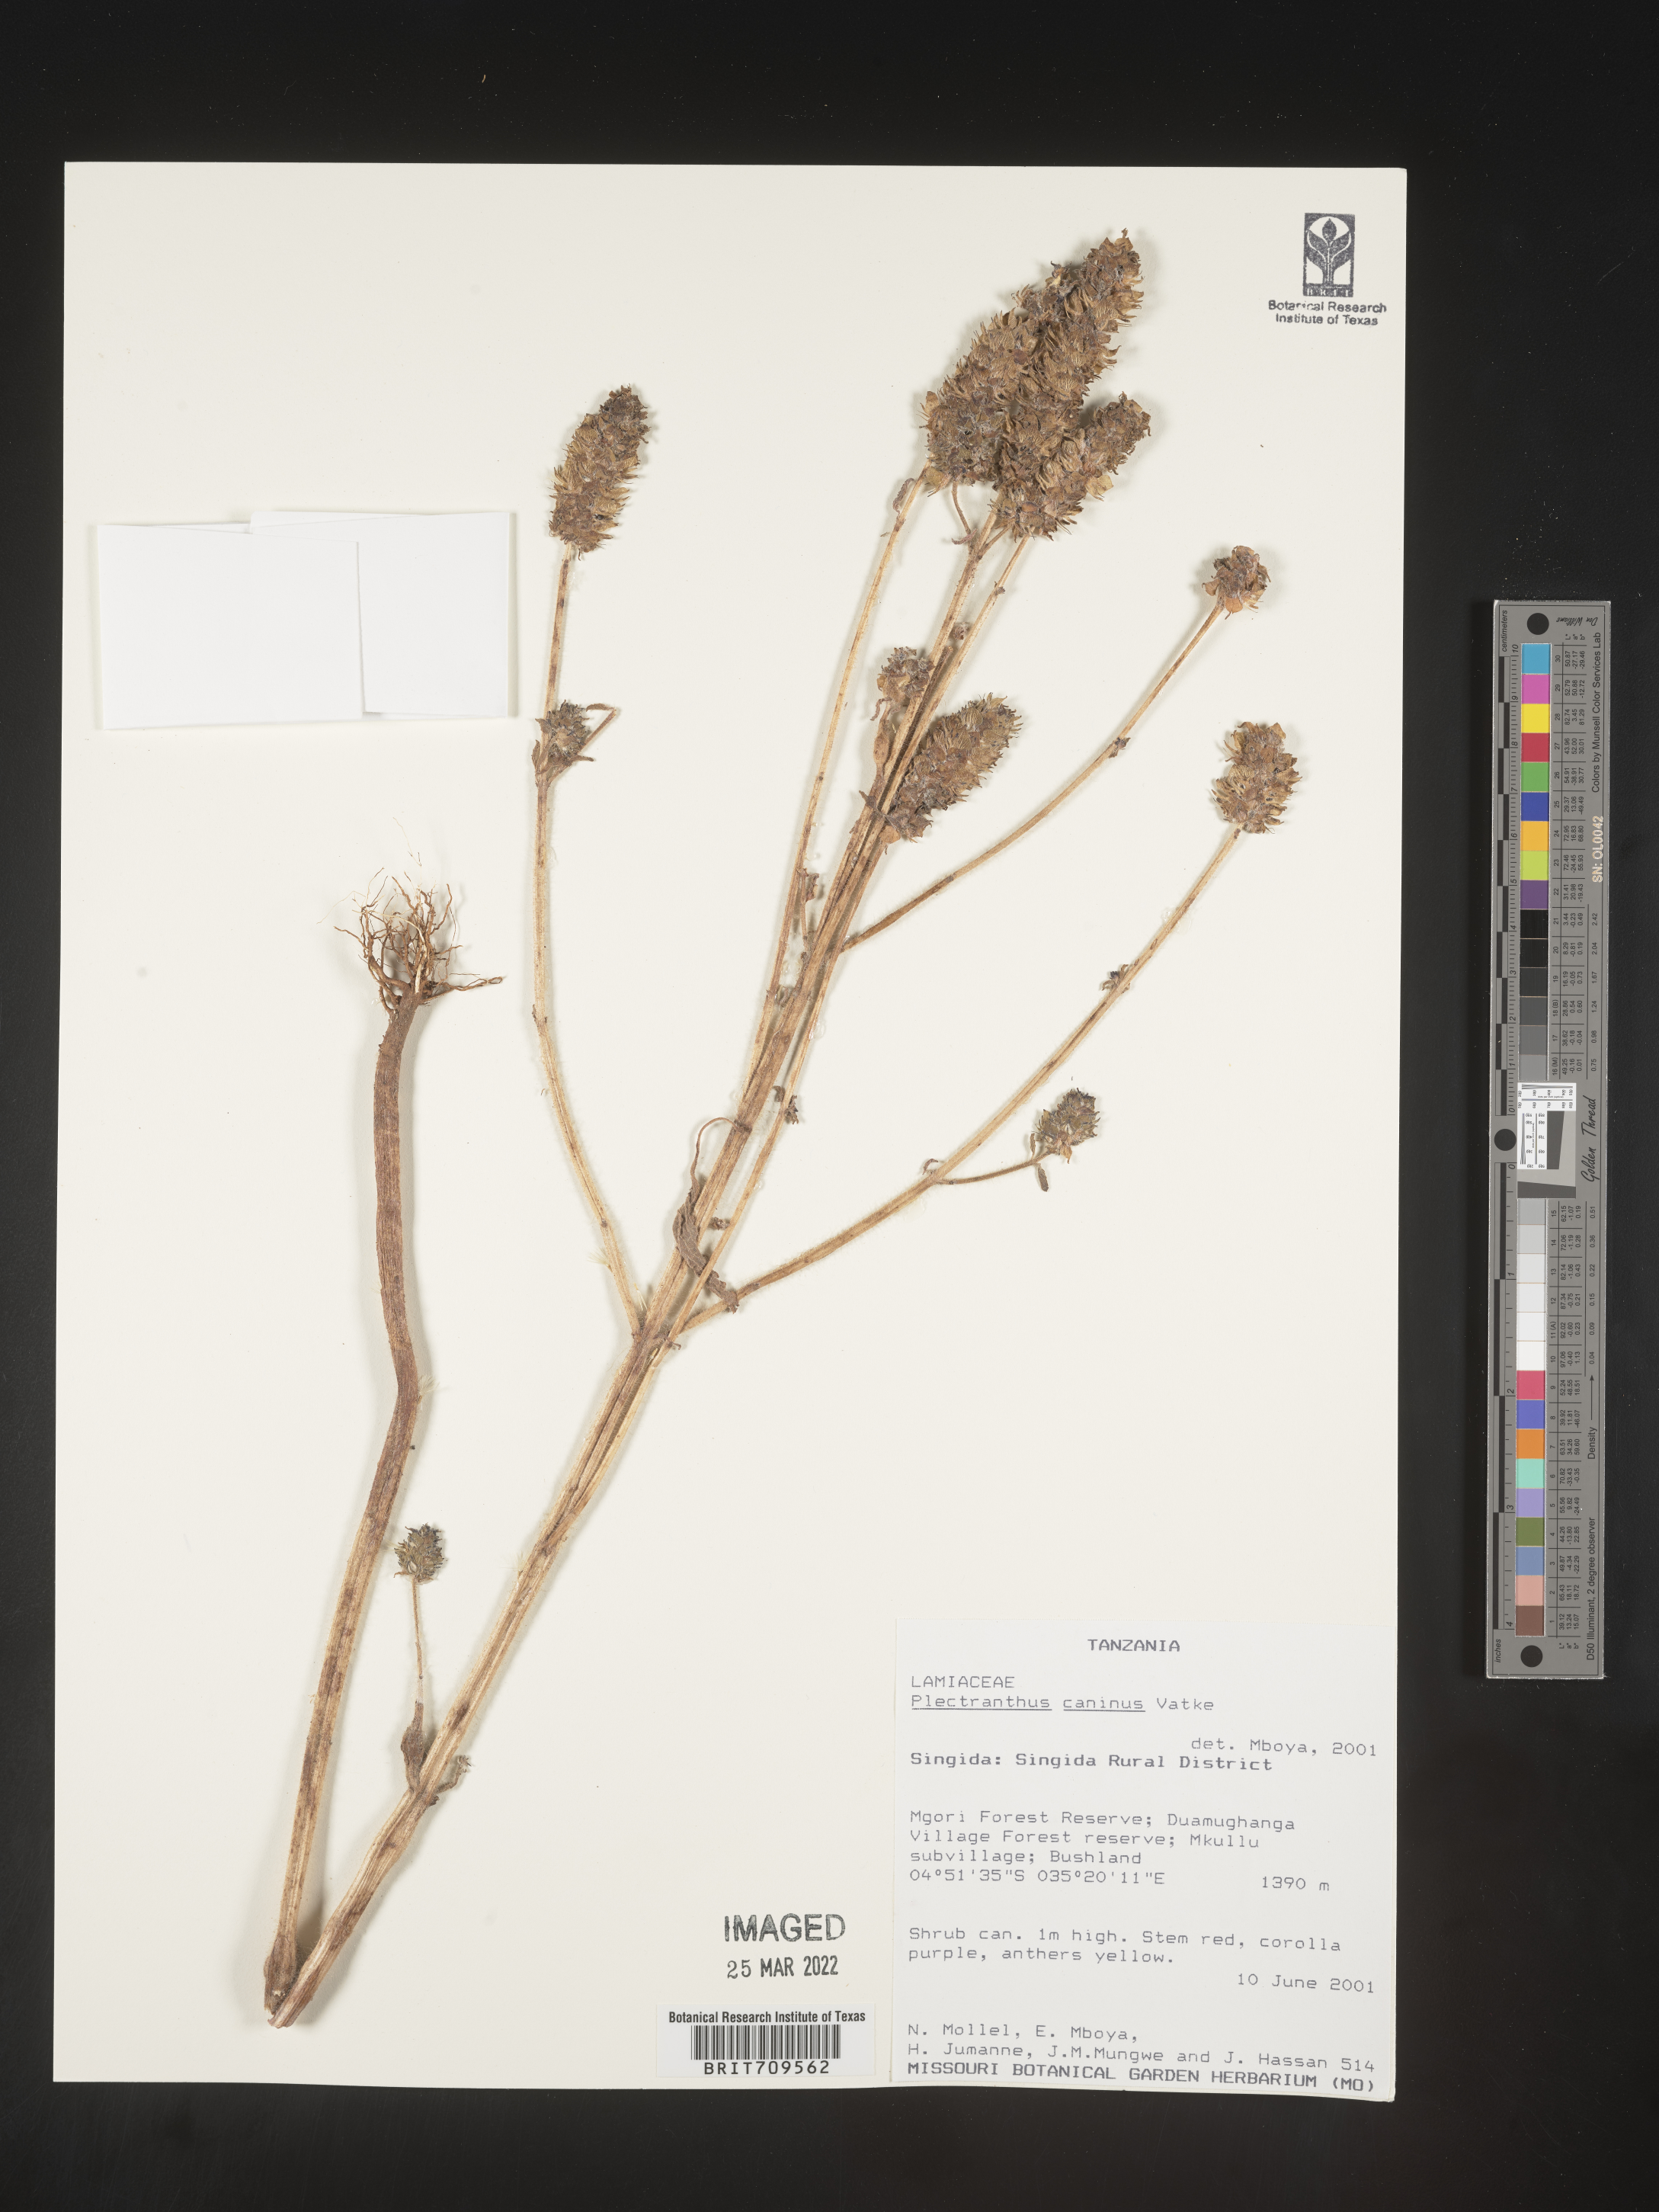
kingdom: Plantae
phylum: Tracheophyta
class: Magnoliopsida
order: Lamiales
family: Lamiaceae
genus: Plectranthus
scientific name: Plectranthus
